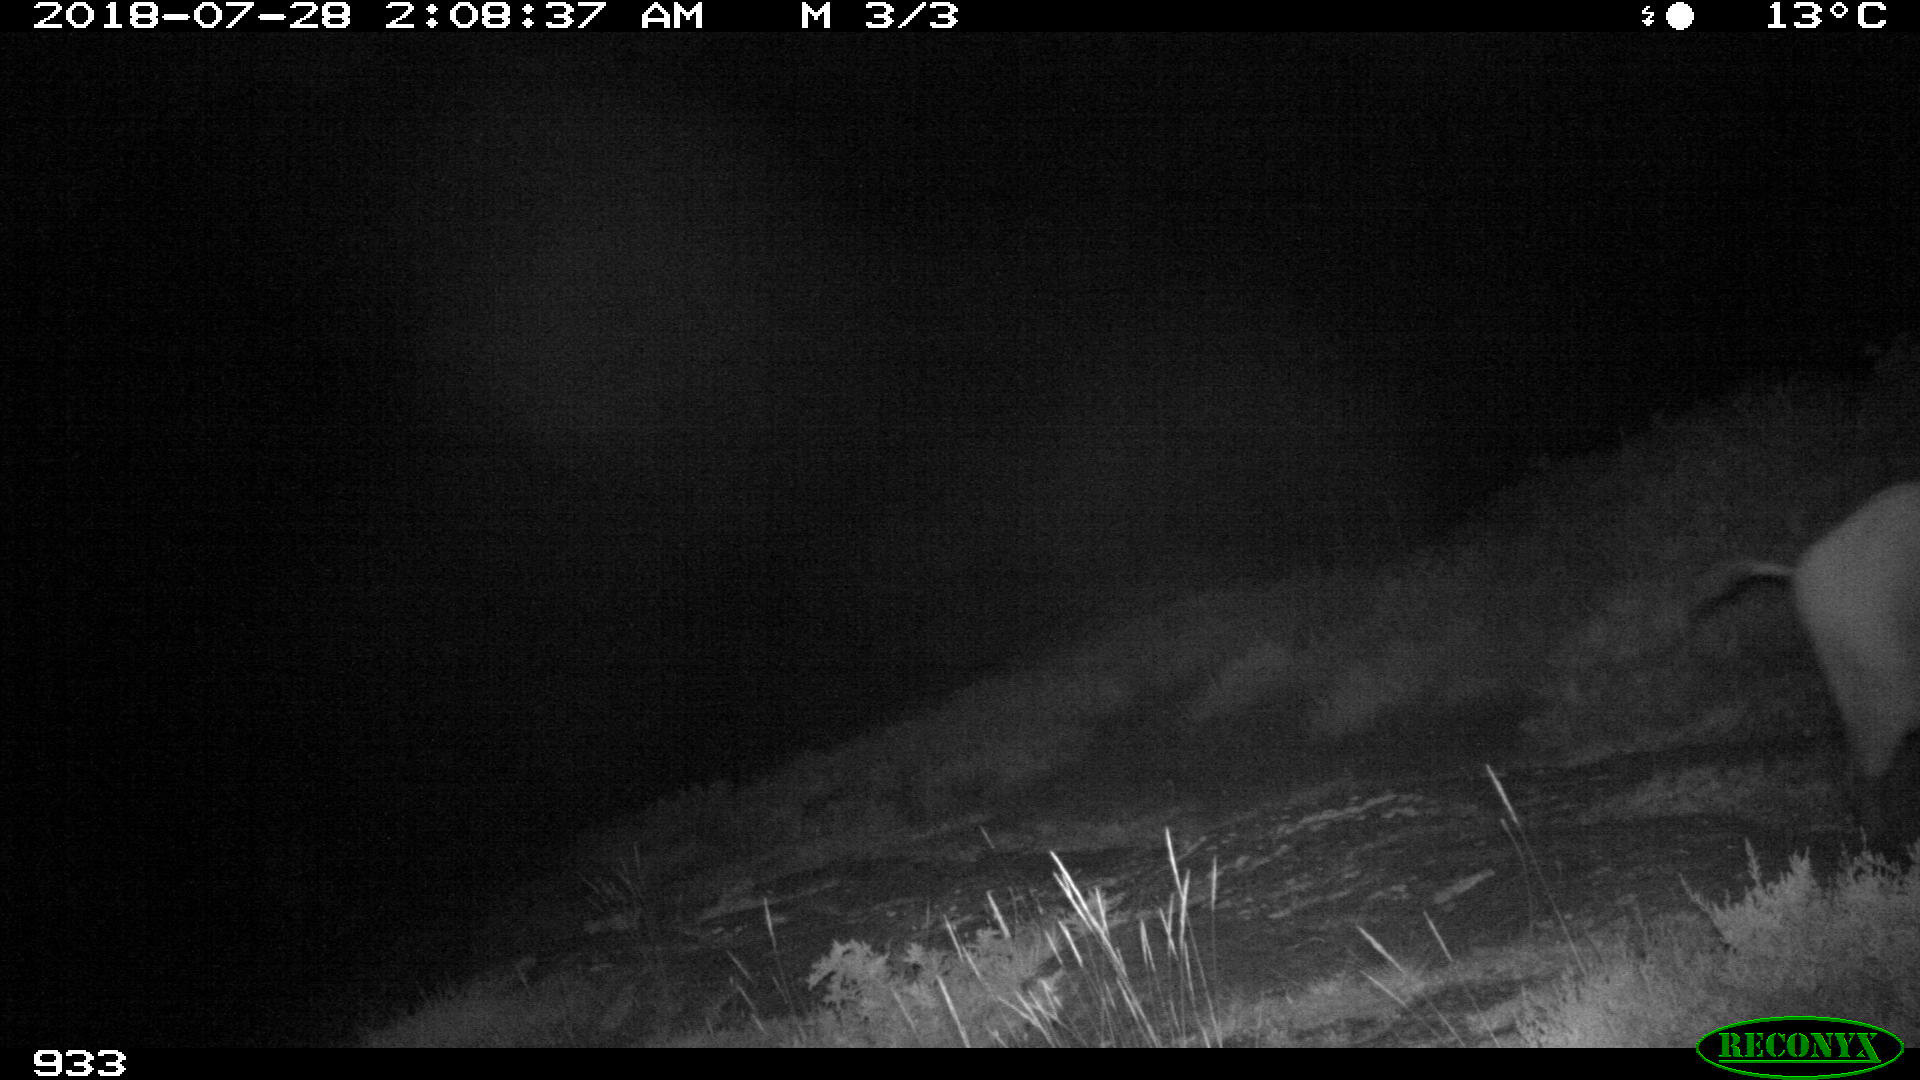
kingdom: Animalia
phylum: Chordata
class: Mammalia
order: Artiodactyla
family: Suidae
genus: Sus
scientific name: Sus scrofa
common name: Wild boar
